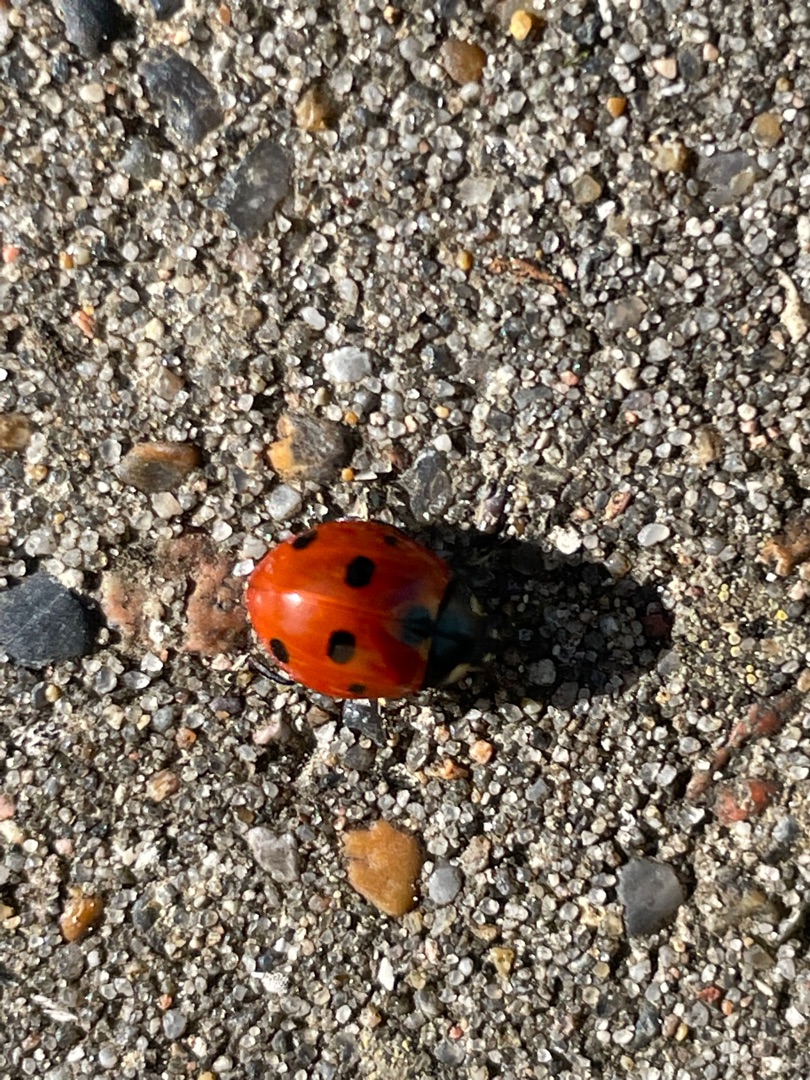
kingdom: Animalia
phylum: Arthropoda
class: Insecta
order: Coleoptera
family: Coccinellidae
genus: Coccinella
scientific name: Coccinella septempunctata
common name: Syvplettet mariehøne
